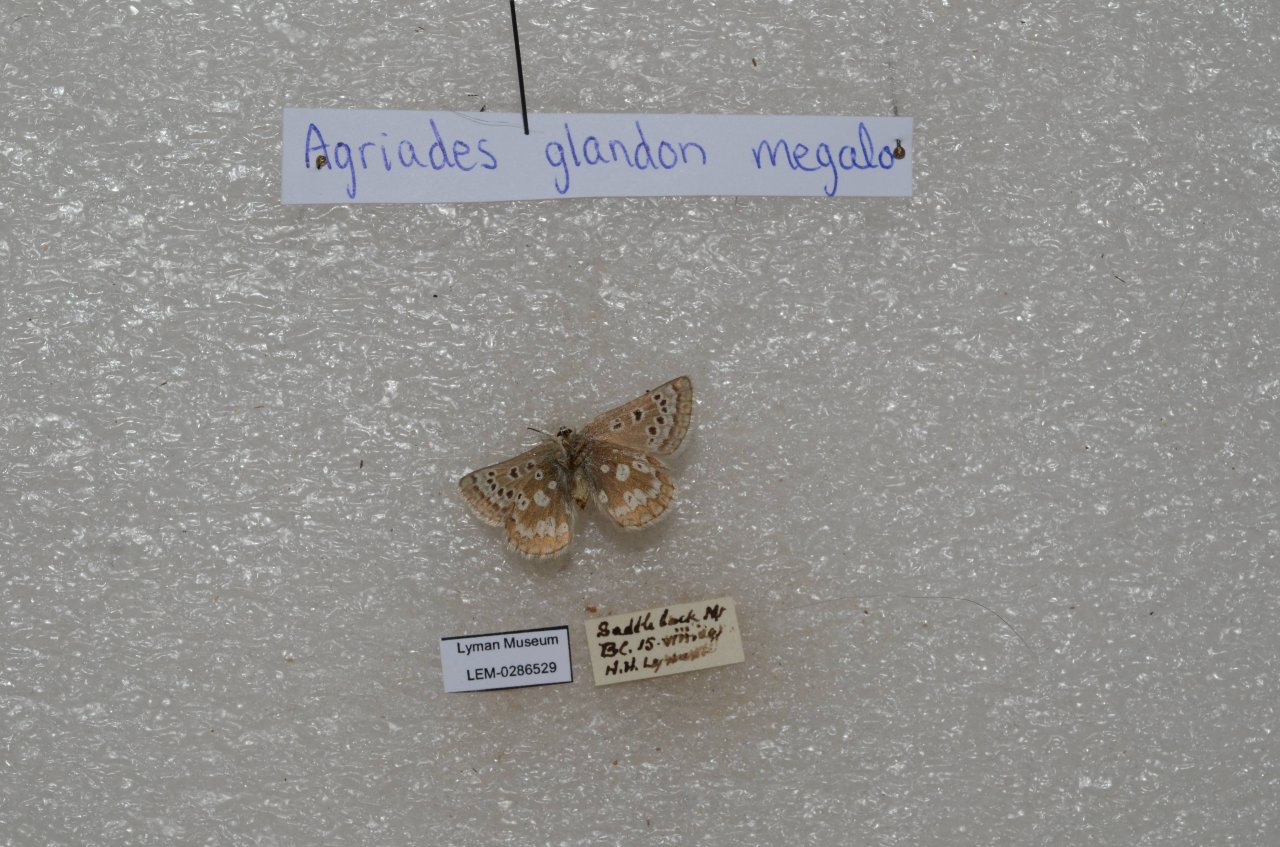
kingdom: Animalia
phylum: Arthropoda
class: Insecta
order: Lepidoptera
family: Lycaenidae
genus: Agriades
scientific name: Agriades glandon
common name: Arctic Blue
